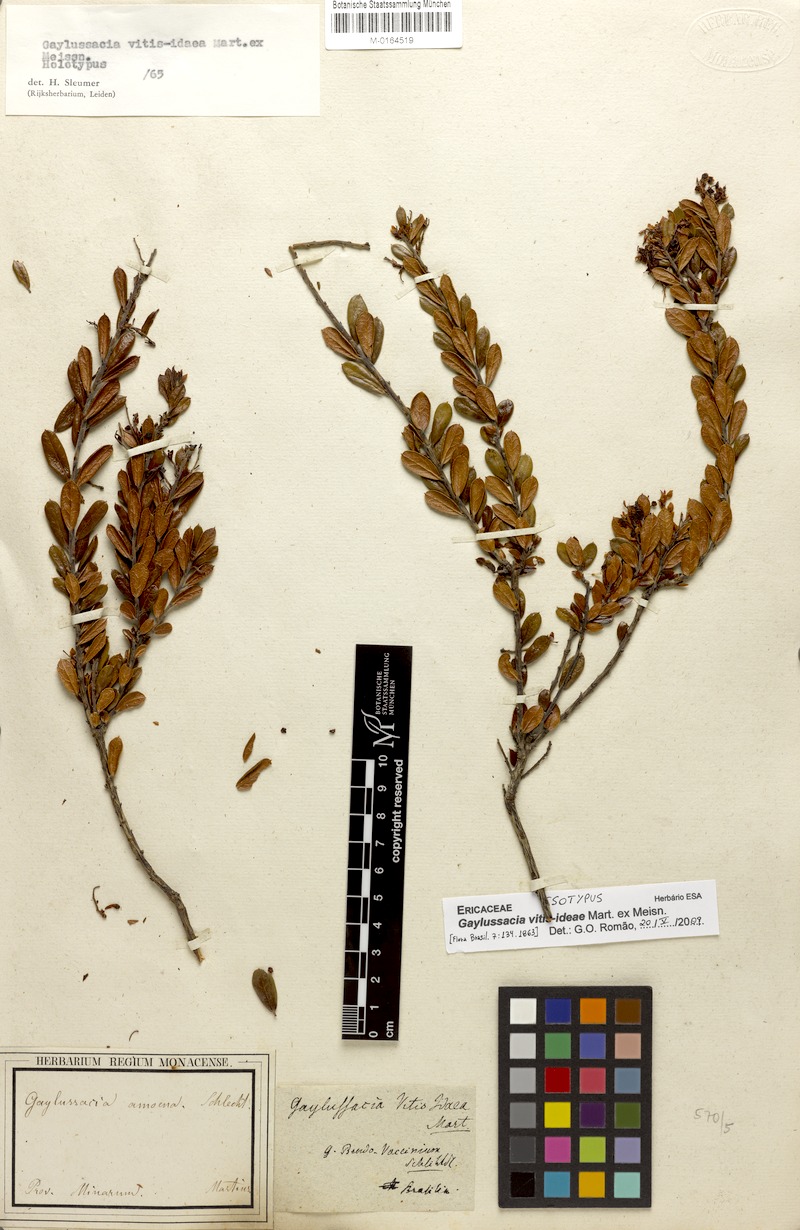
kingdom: Plantae
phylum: Tracheophyta
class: Magnoliopsida
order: Ericales
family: Ericaceae
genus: Gaylussacia
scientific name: Gaylussacia vitis-idaea
